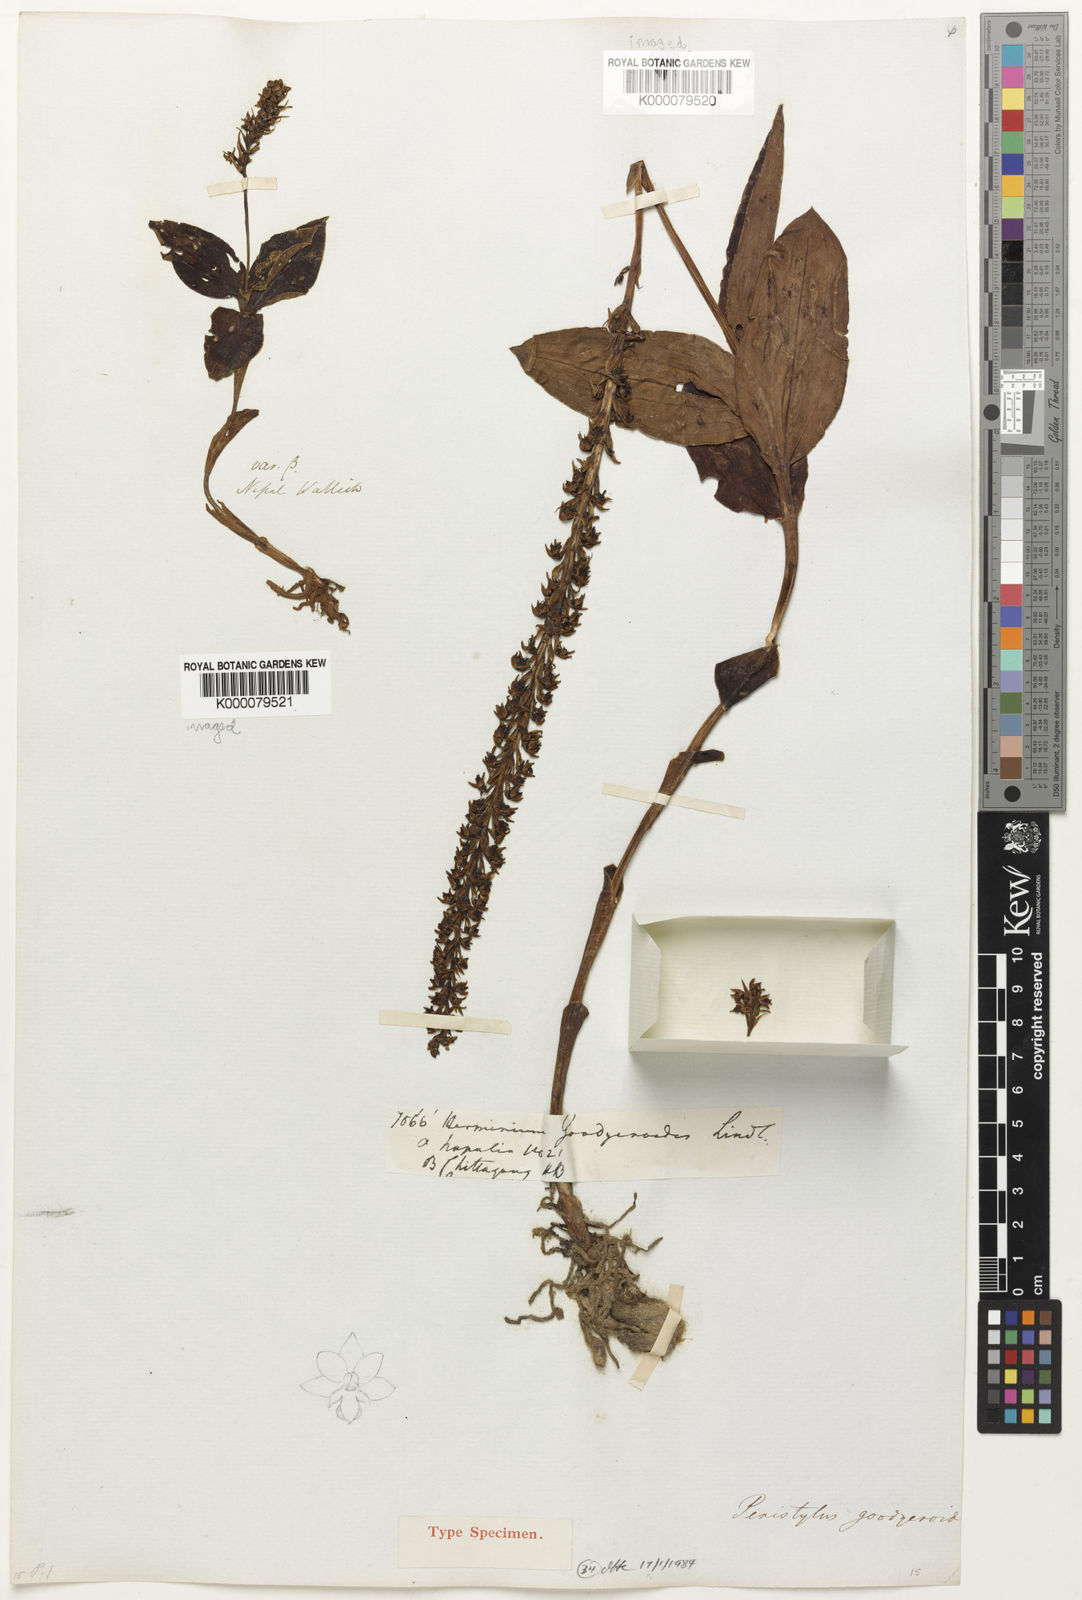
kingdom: Plantae
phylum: Tracheophyta
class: Liliopsida
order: Asparagales
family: Orchidaceae
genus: Peristylus
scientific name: Peristylus goodyeroides
